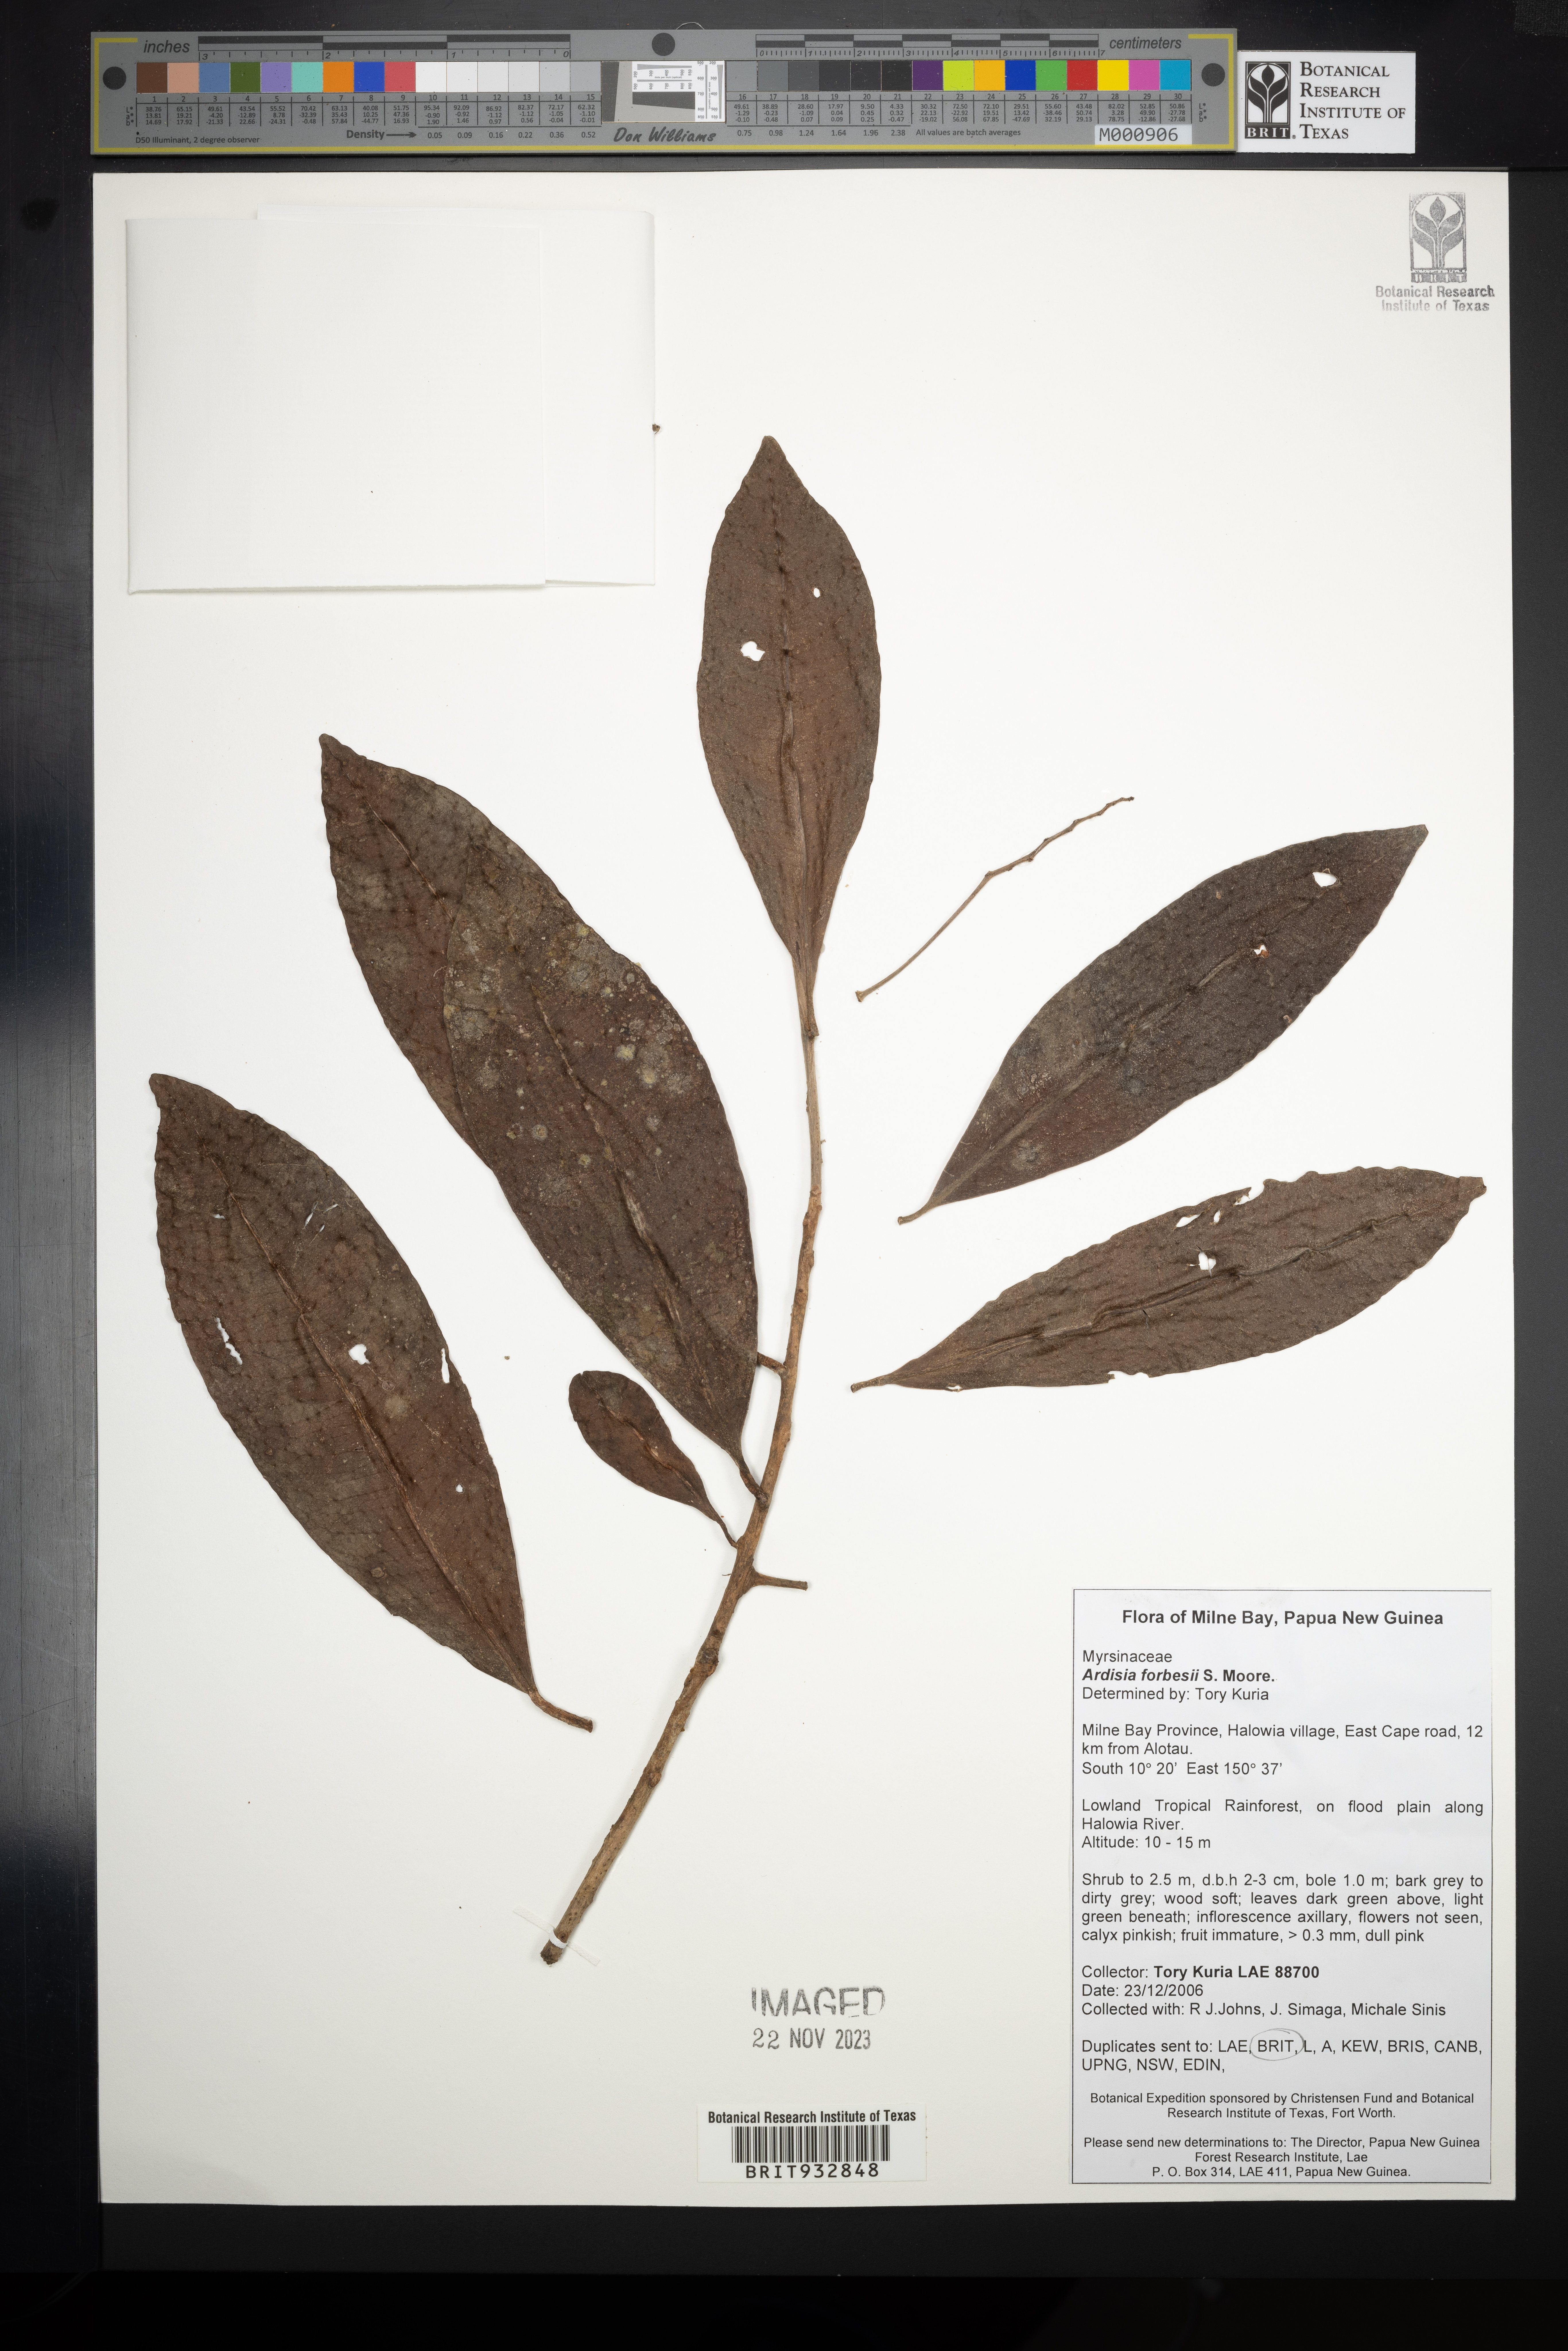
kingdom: Plantae
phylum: Tracheophyta
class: Magnoliopsida
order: Ericales
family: Primulaceae
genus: Ardisia
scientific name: Ardisia
